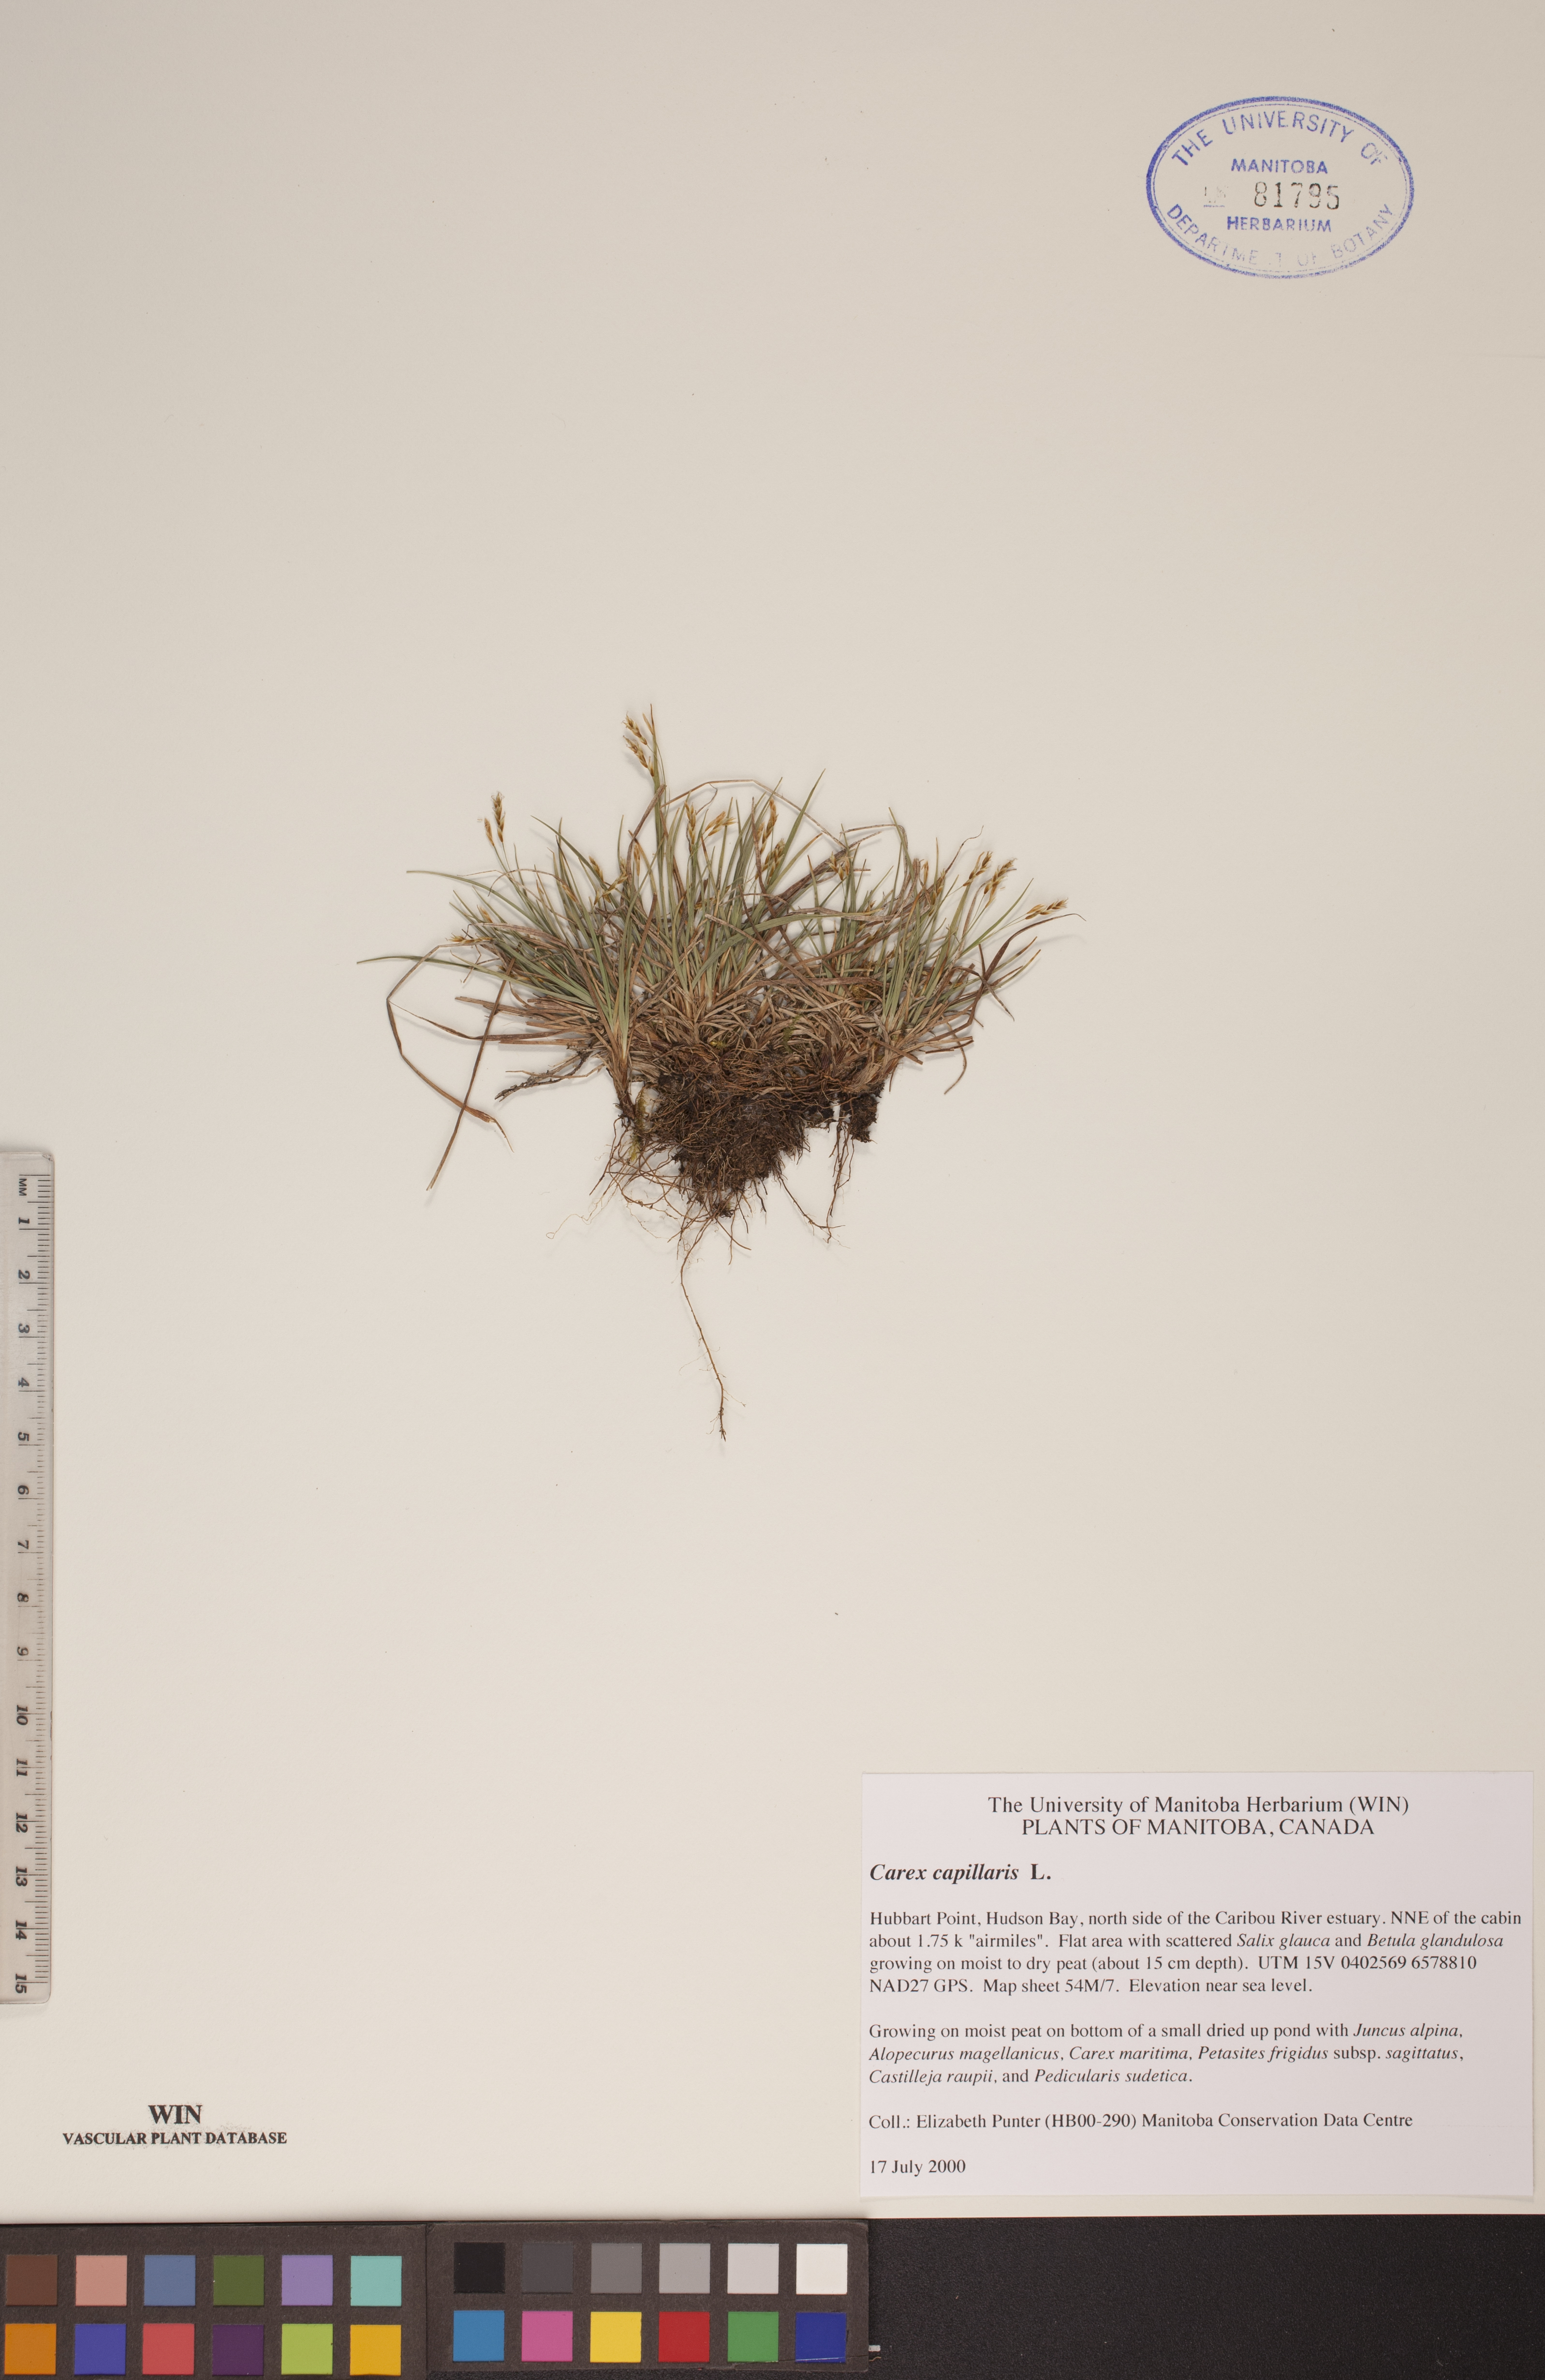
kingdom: Plantae
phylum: Tracheophyta
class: Liliopsida
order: Poales
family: Cyperaceae
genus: Carex
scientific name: Carex capillaris
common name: Hair sedge
